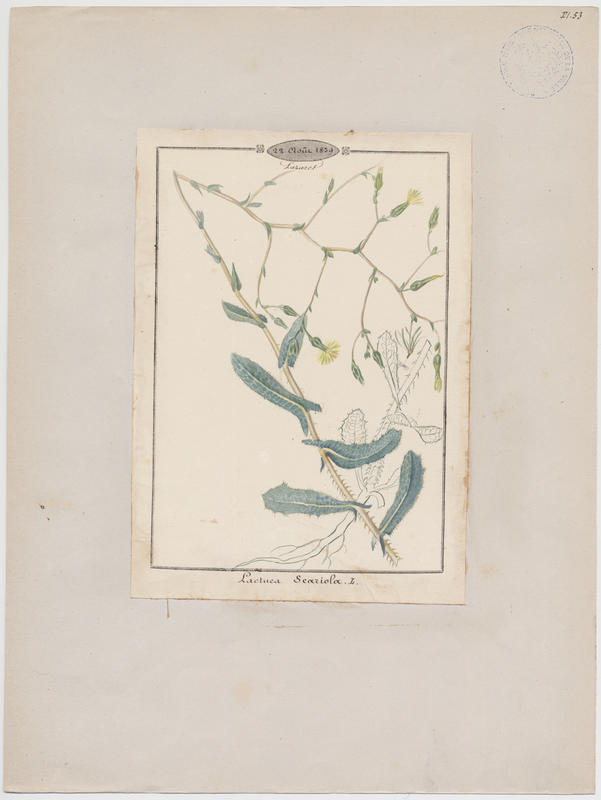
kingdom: Plantae
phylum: Tracheophyta
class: Magnoliopsida
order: Asterales
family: Asteraceae
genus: Lactuca
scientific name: Lactuca serriola
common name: Prickly lettuce
